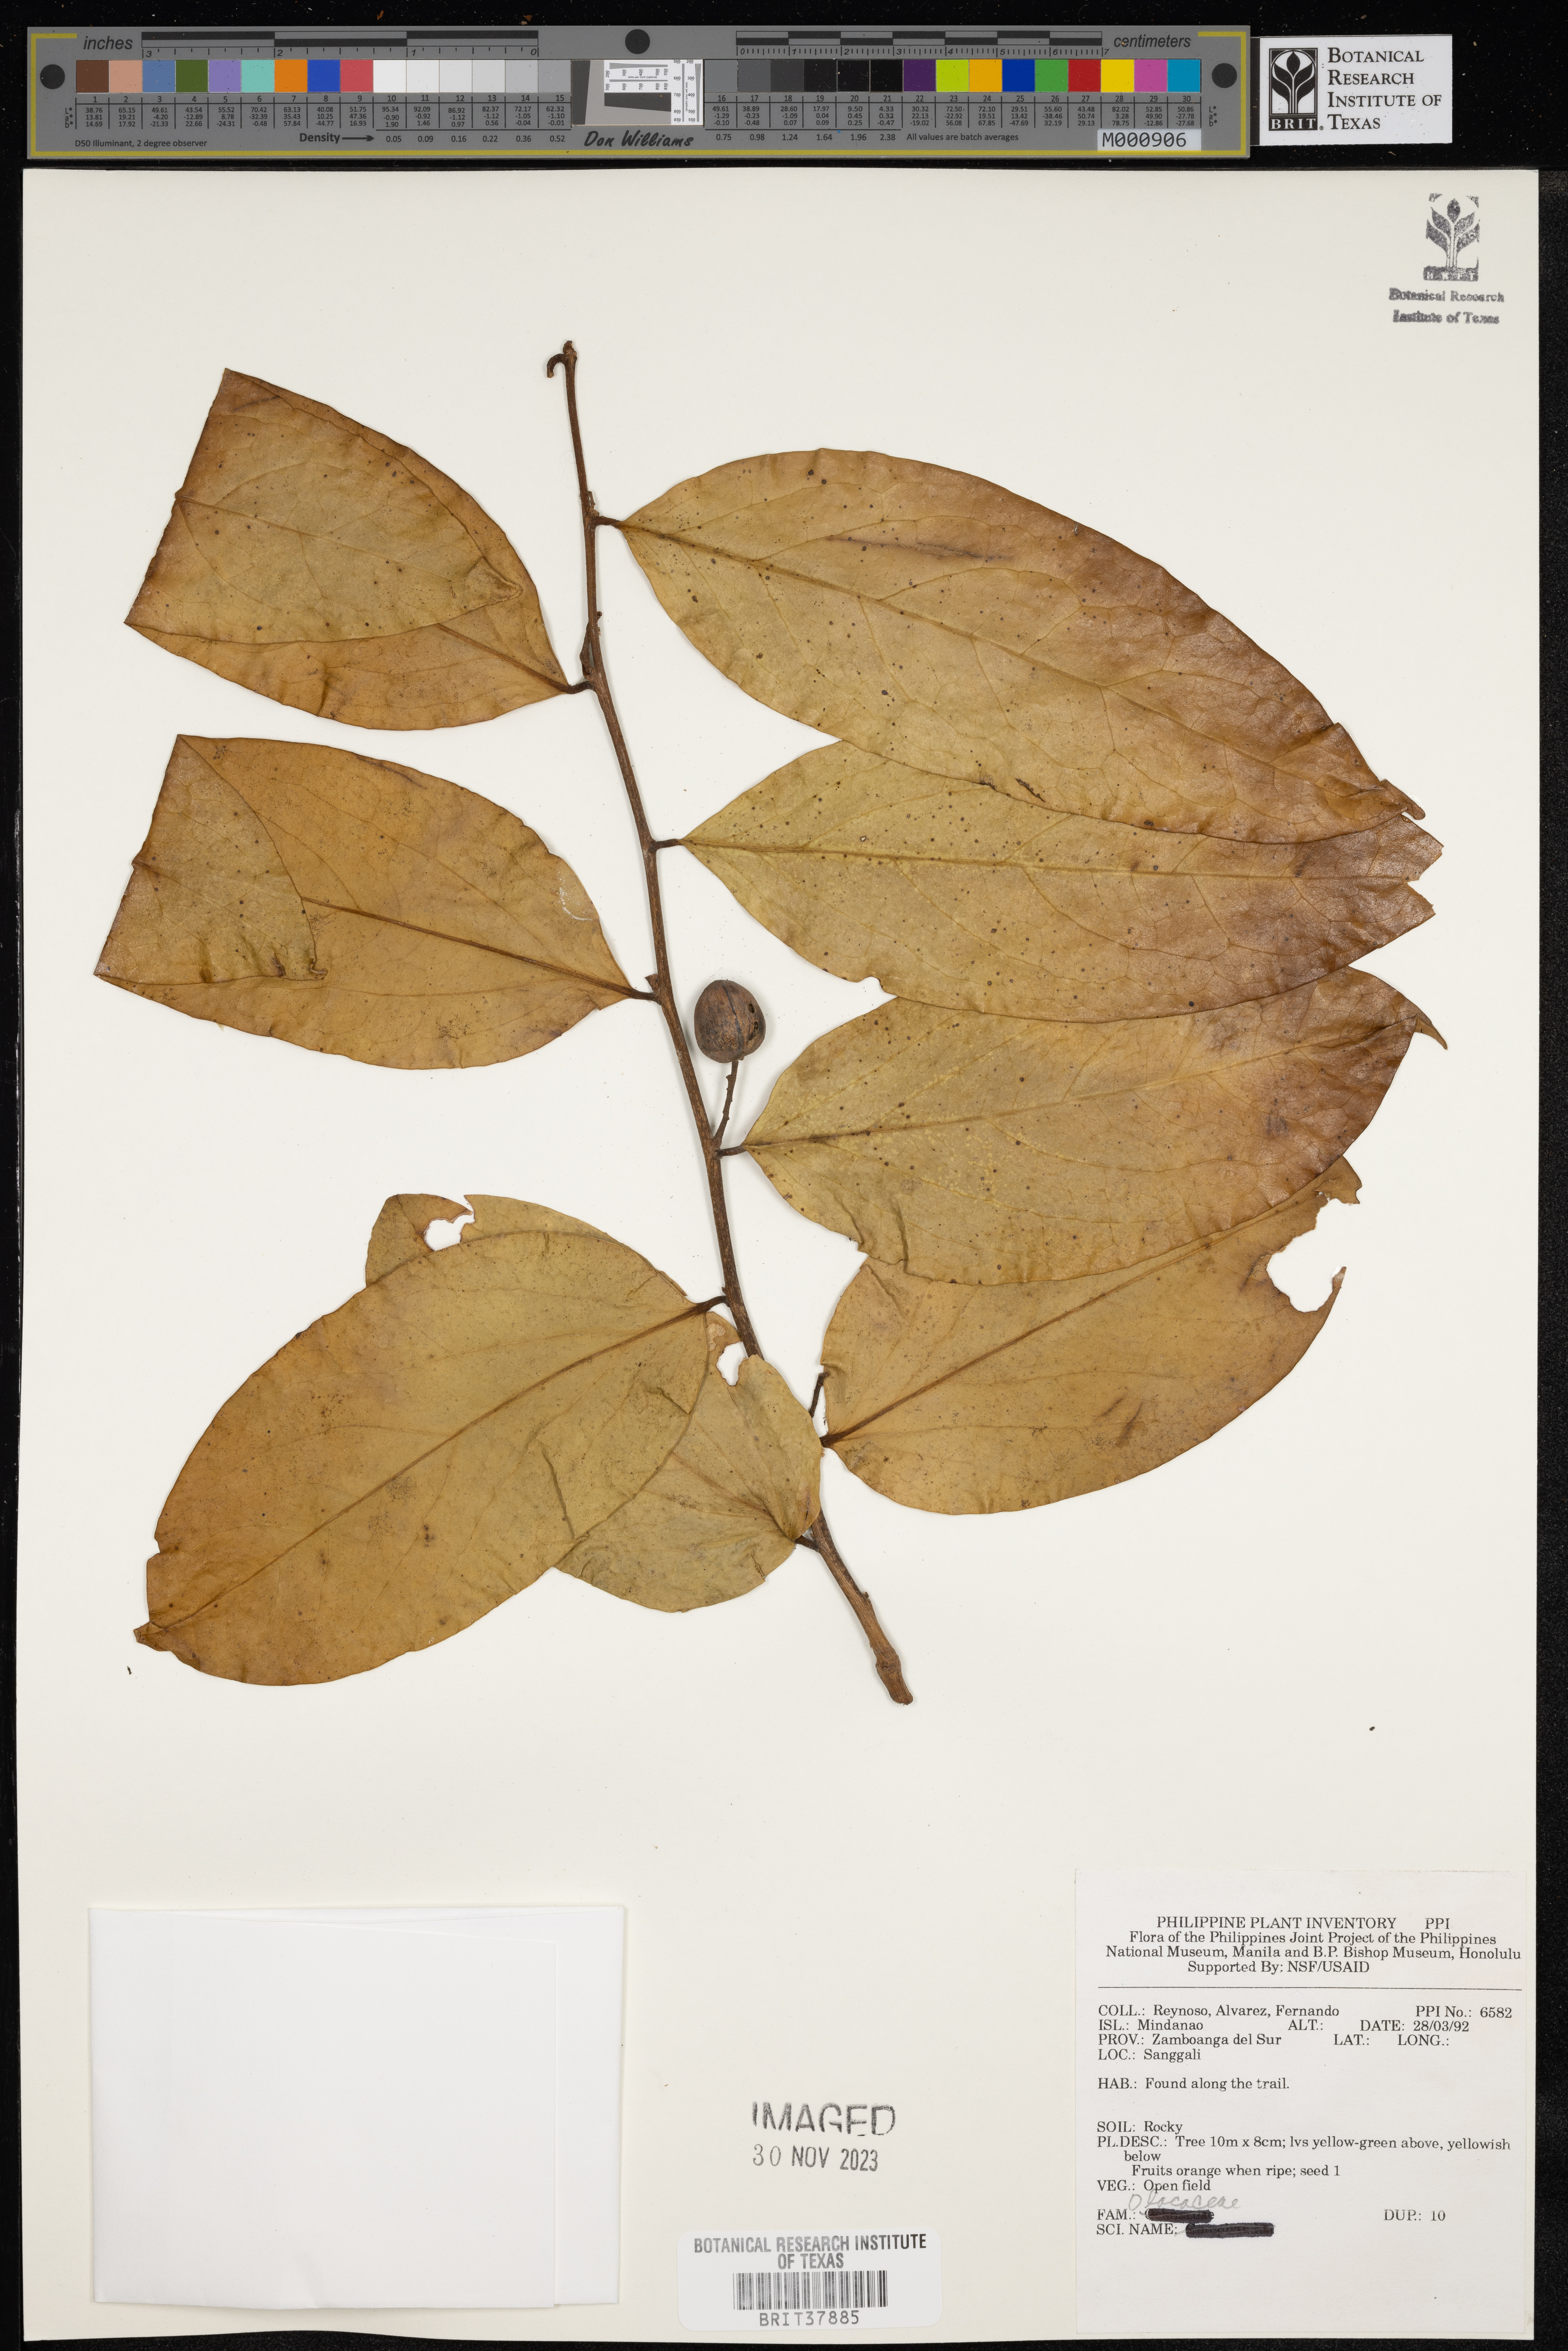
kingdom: Plantae
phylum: Tracheophyta
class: Magnoliopsida
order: Santalales
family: Olacaceae
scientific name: Olacaceae
